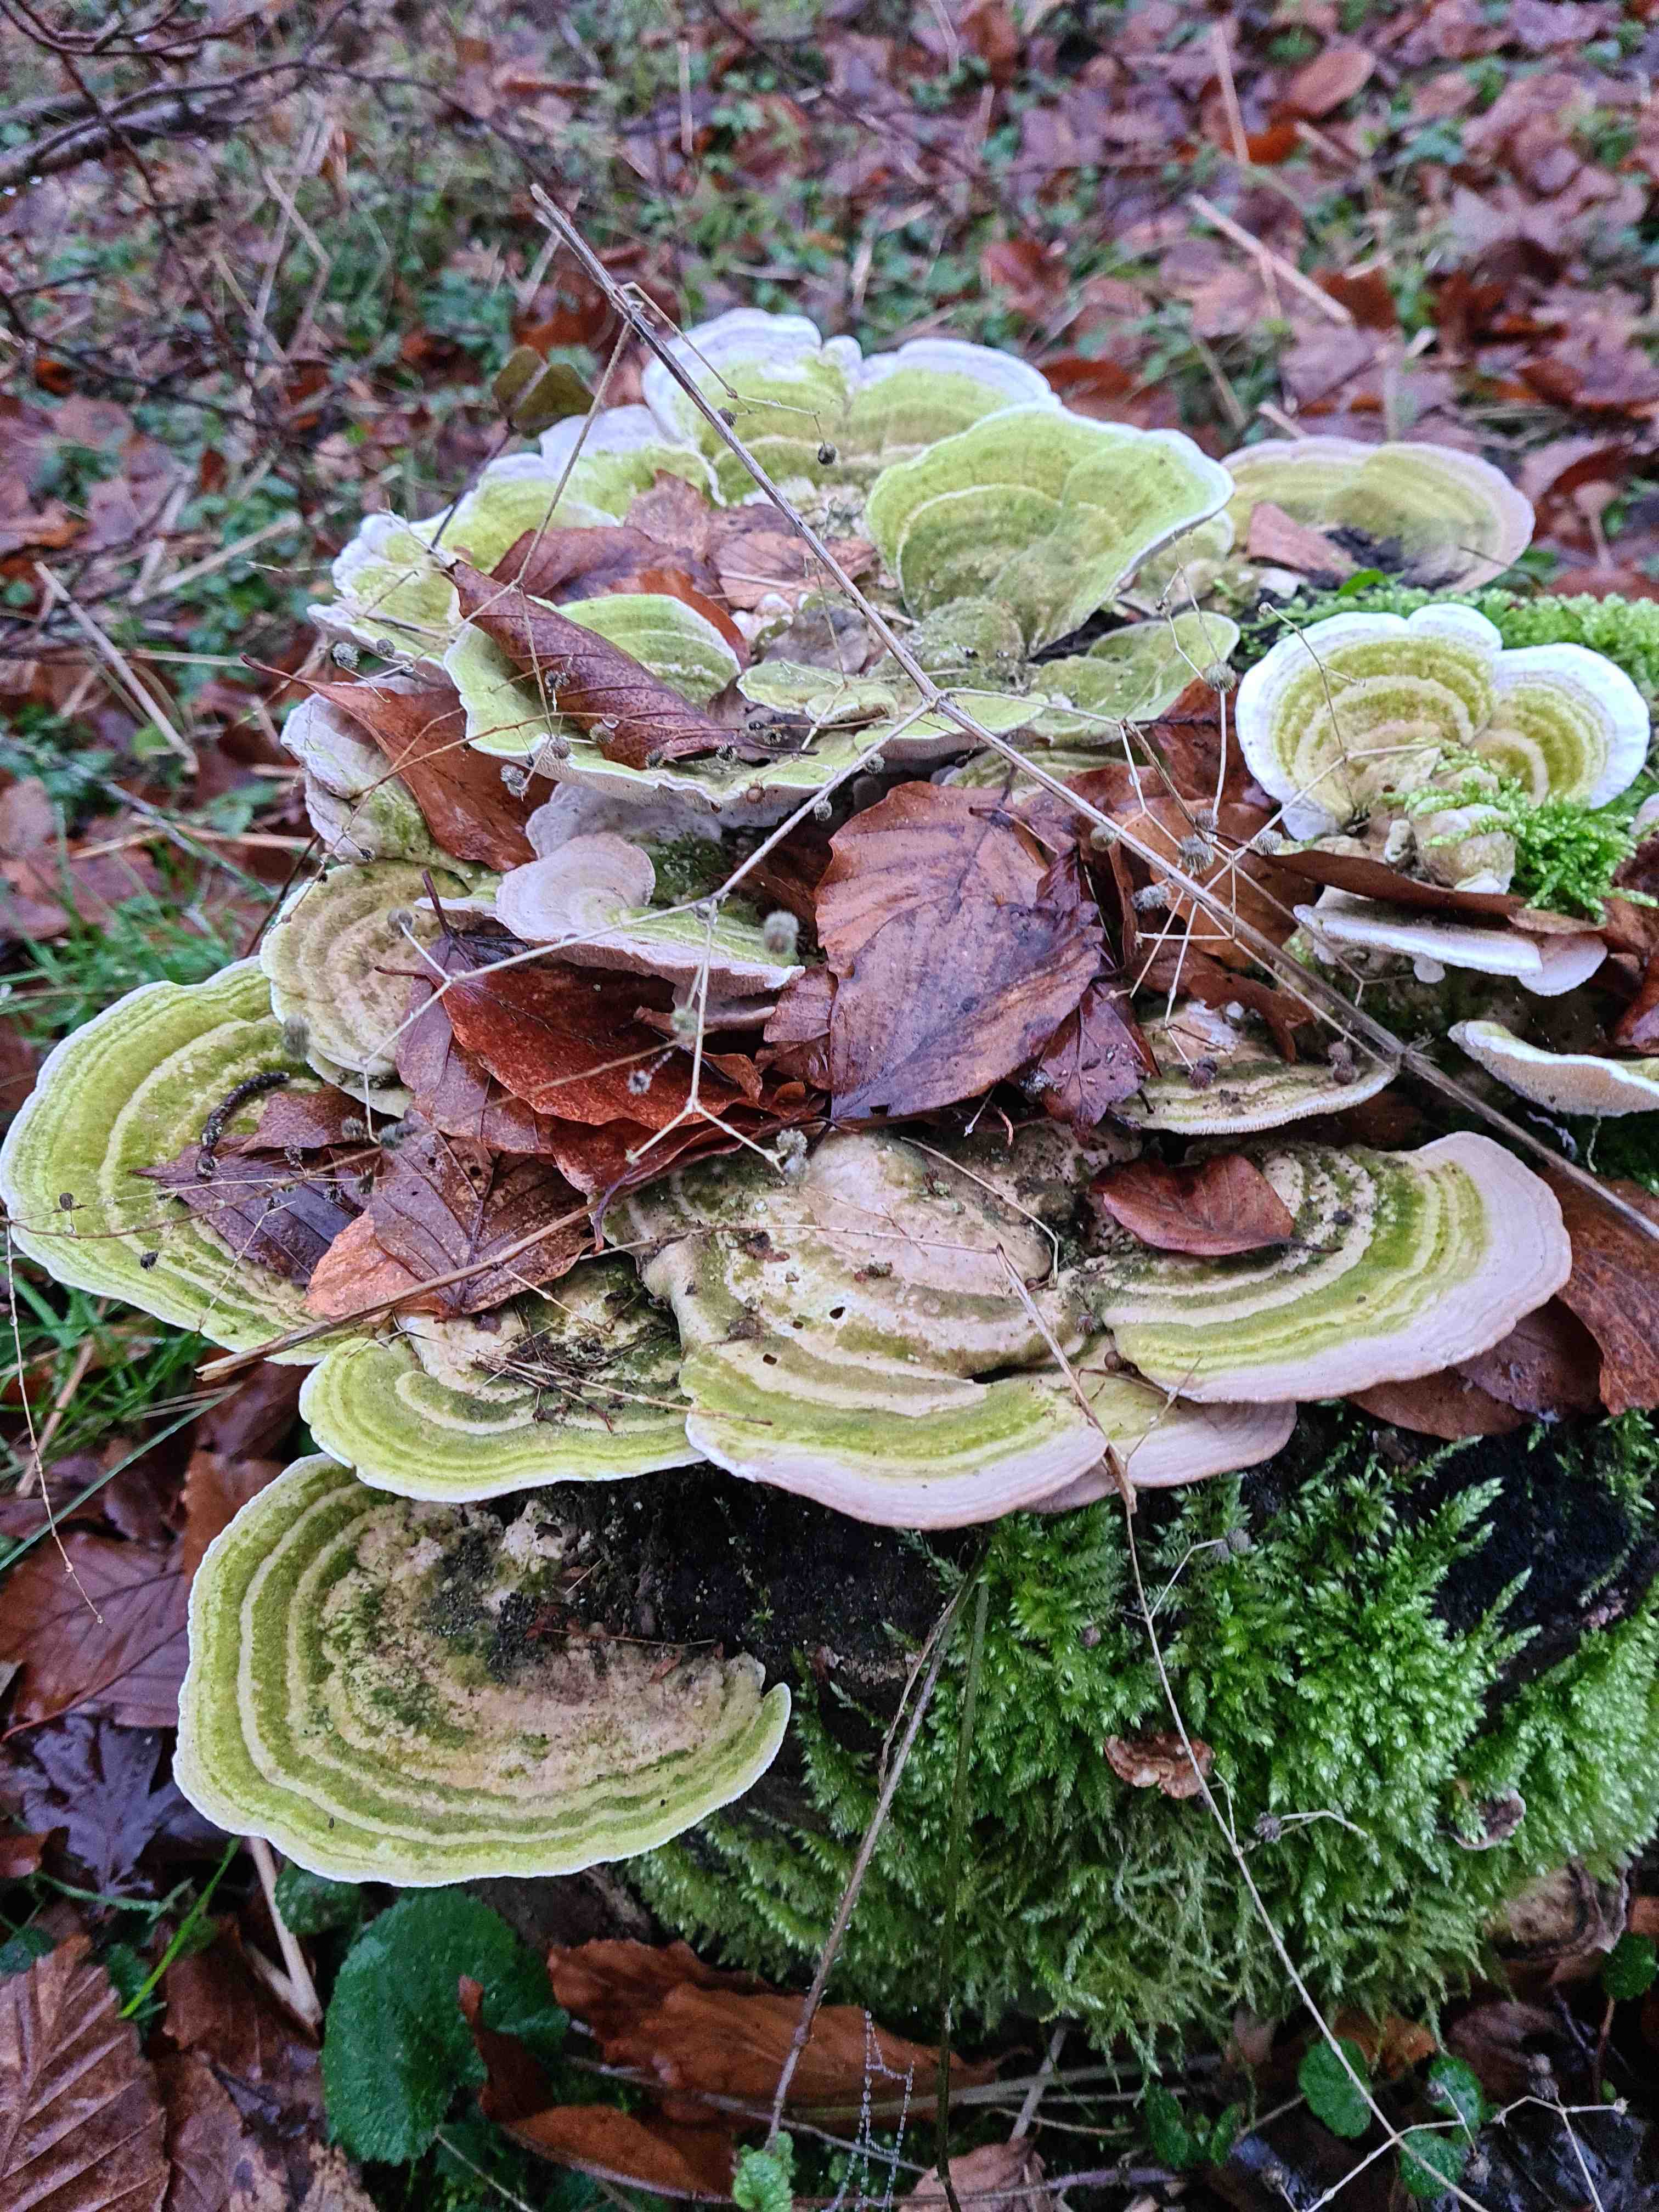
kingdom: Fungi
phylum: Basidiomycota
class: Agaricomycetes
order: Polyporales
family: Polyporaceae
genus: Trametes
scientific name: Trametes gibbosa
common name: puklet læderporesvamp
